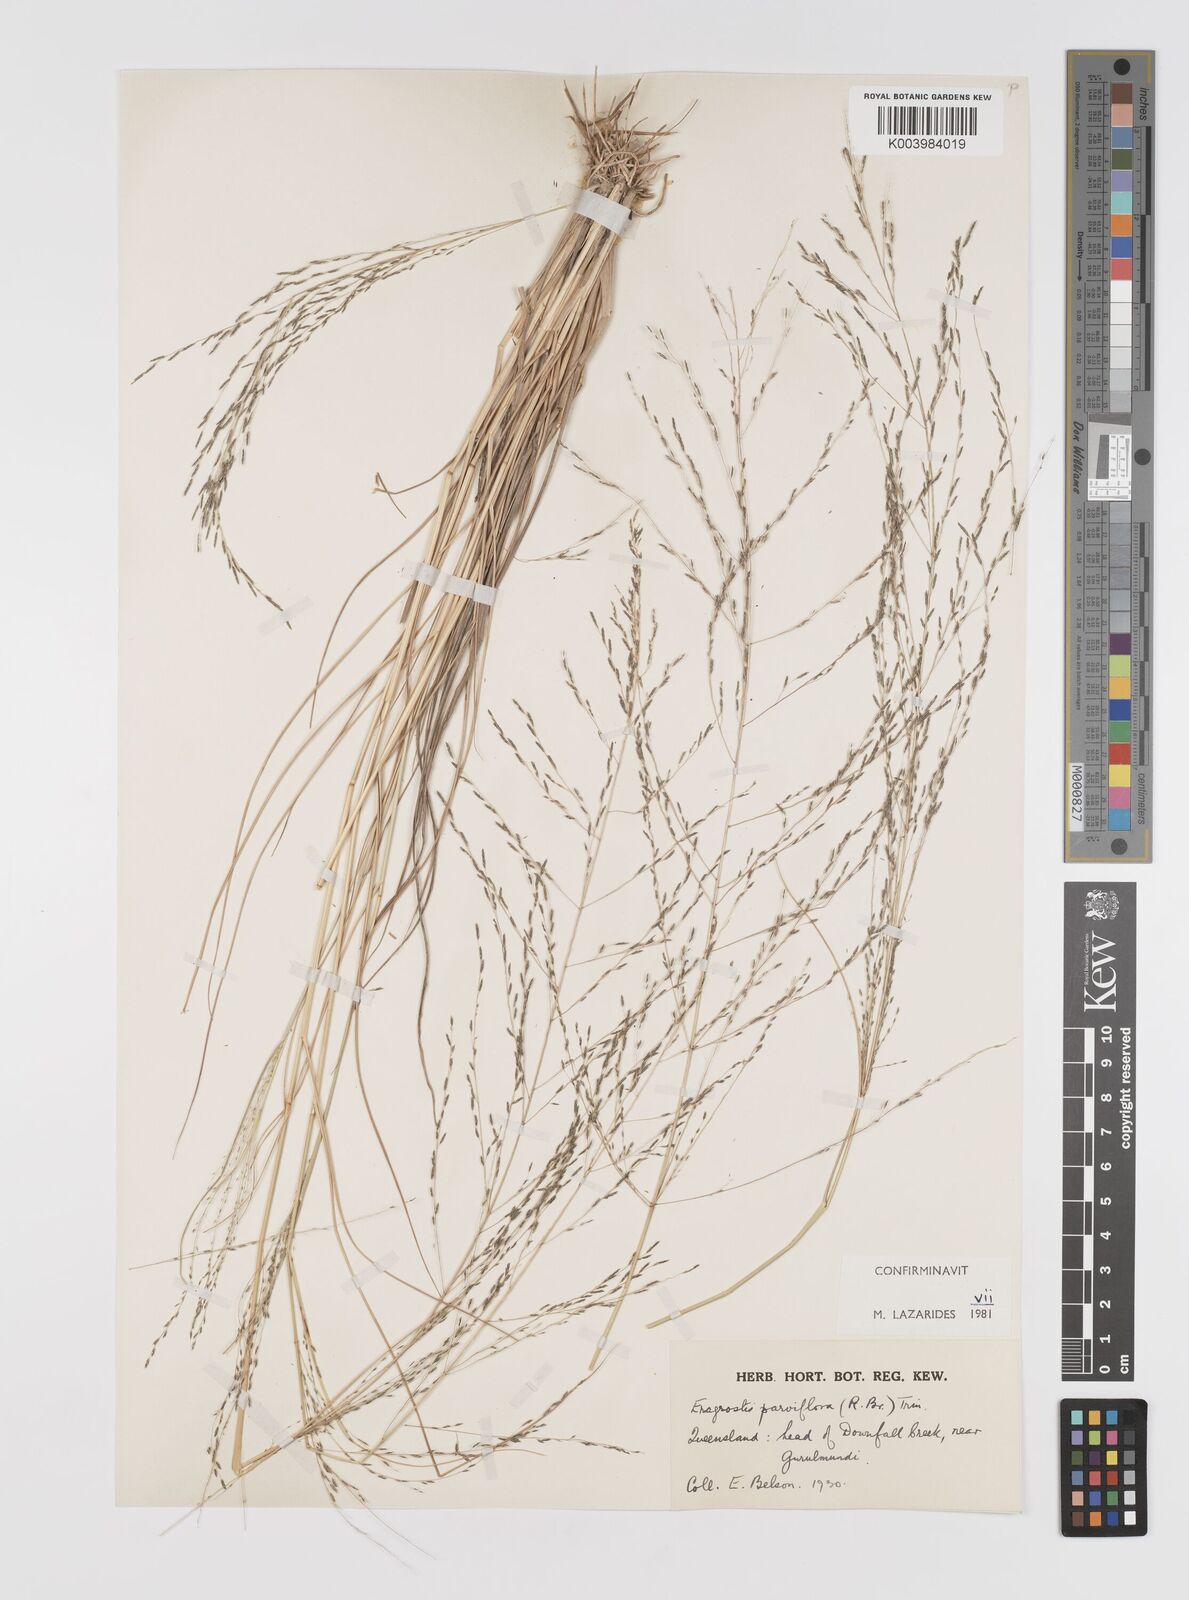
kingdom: Plantae
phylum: Tracheophyta
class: Liliopsida
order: Poales
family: Poaceae
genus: Eragrostis
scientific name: Eragrostis parviflora
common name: Weeping love-grass
